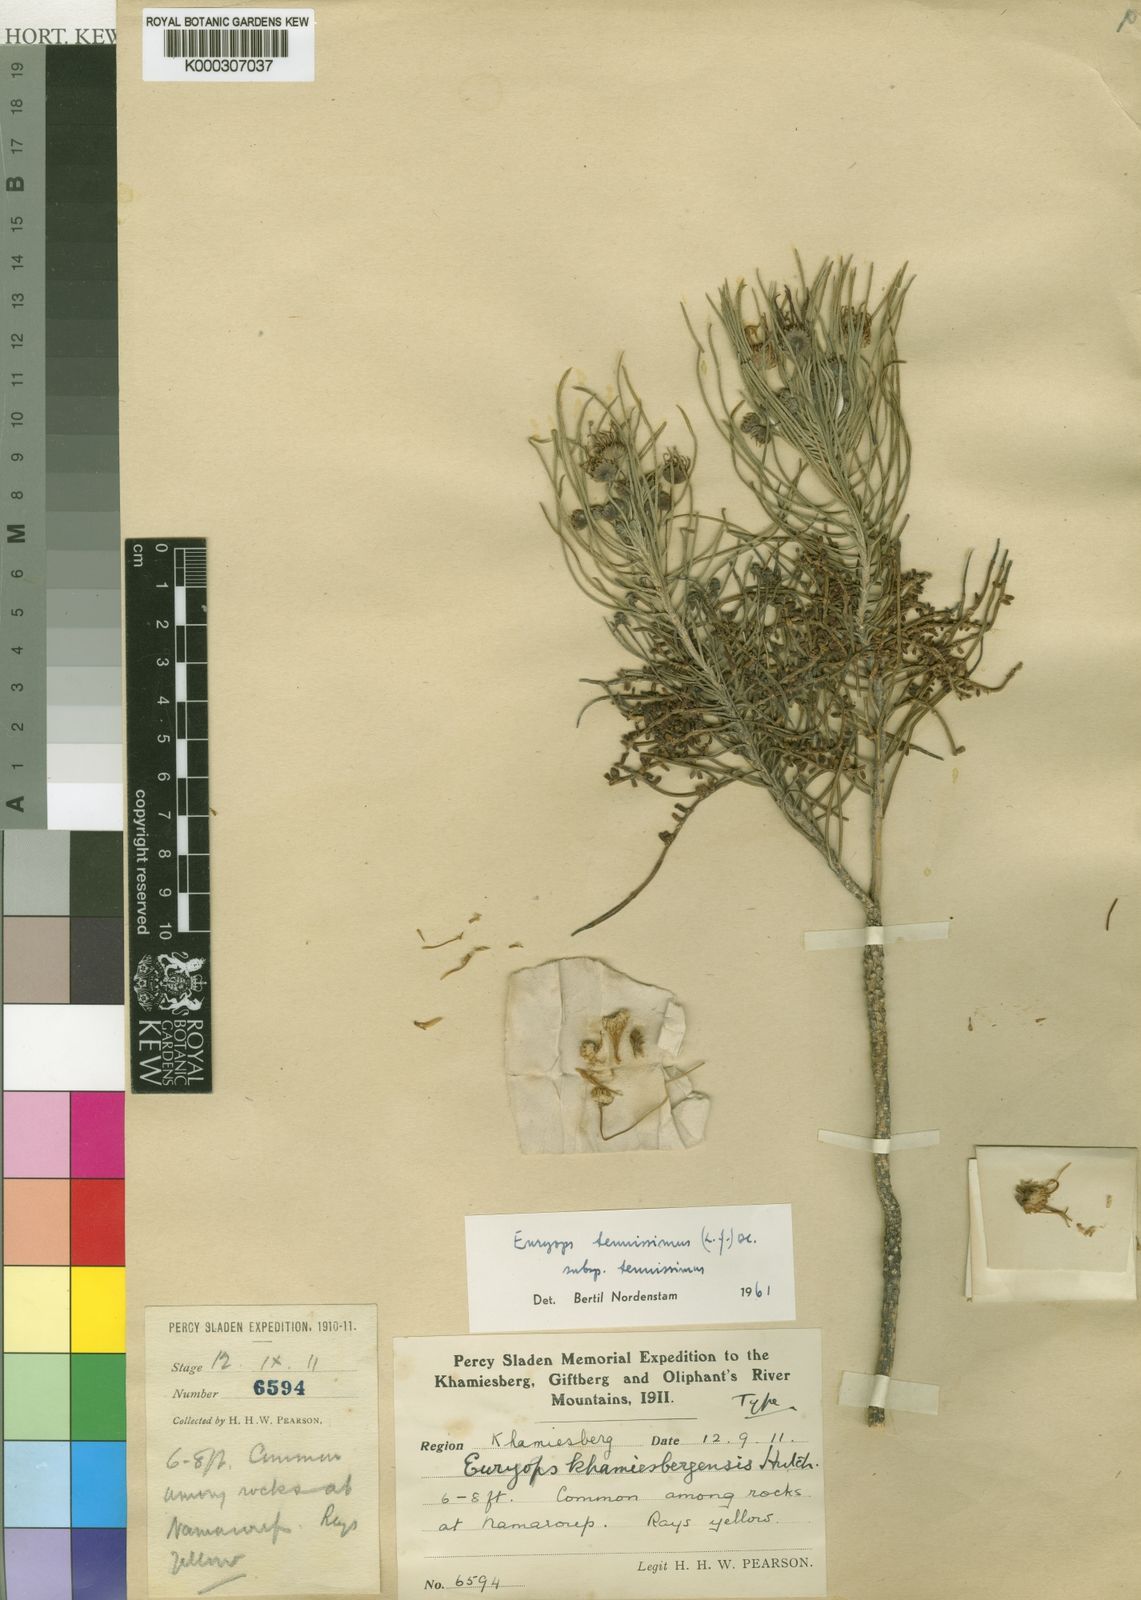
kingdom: Plantae
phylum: Tracheophyta
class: Magnoliopsida
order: Asterales
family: Asteraceae
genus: Euryops
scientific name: Euryops tenuissimus
